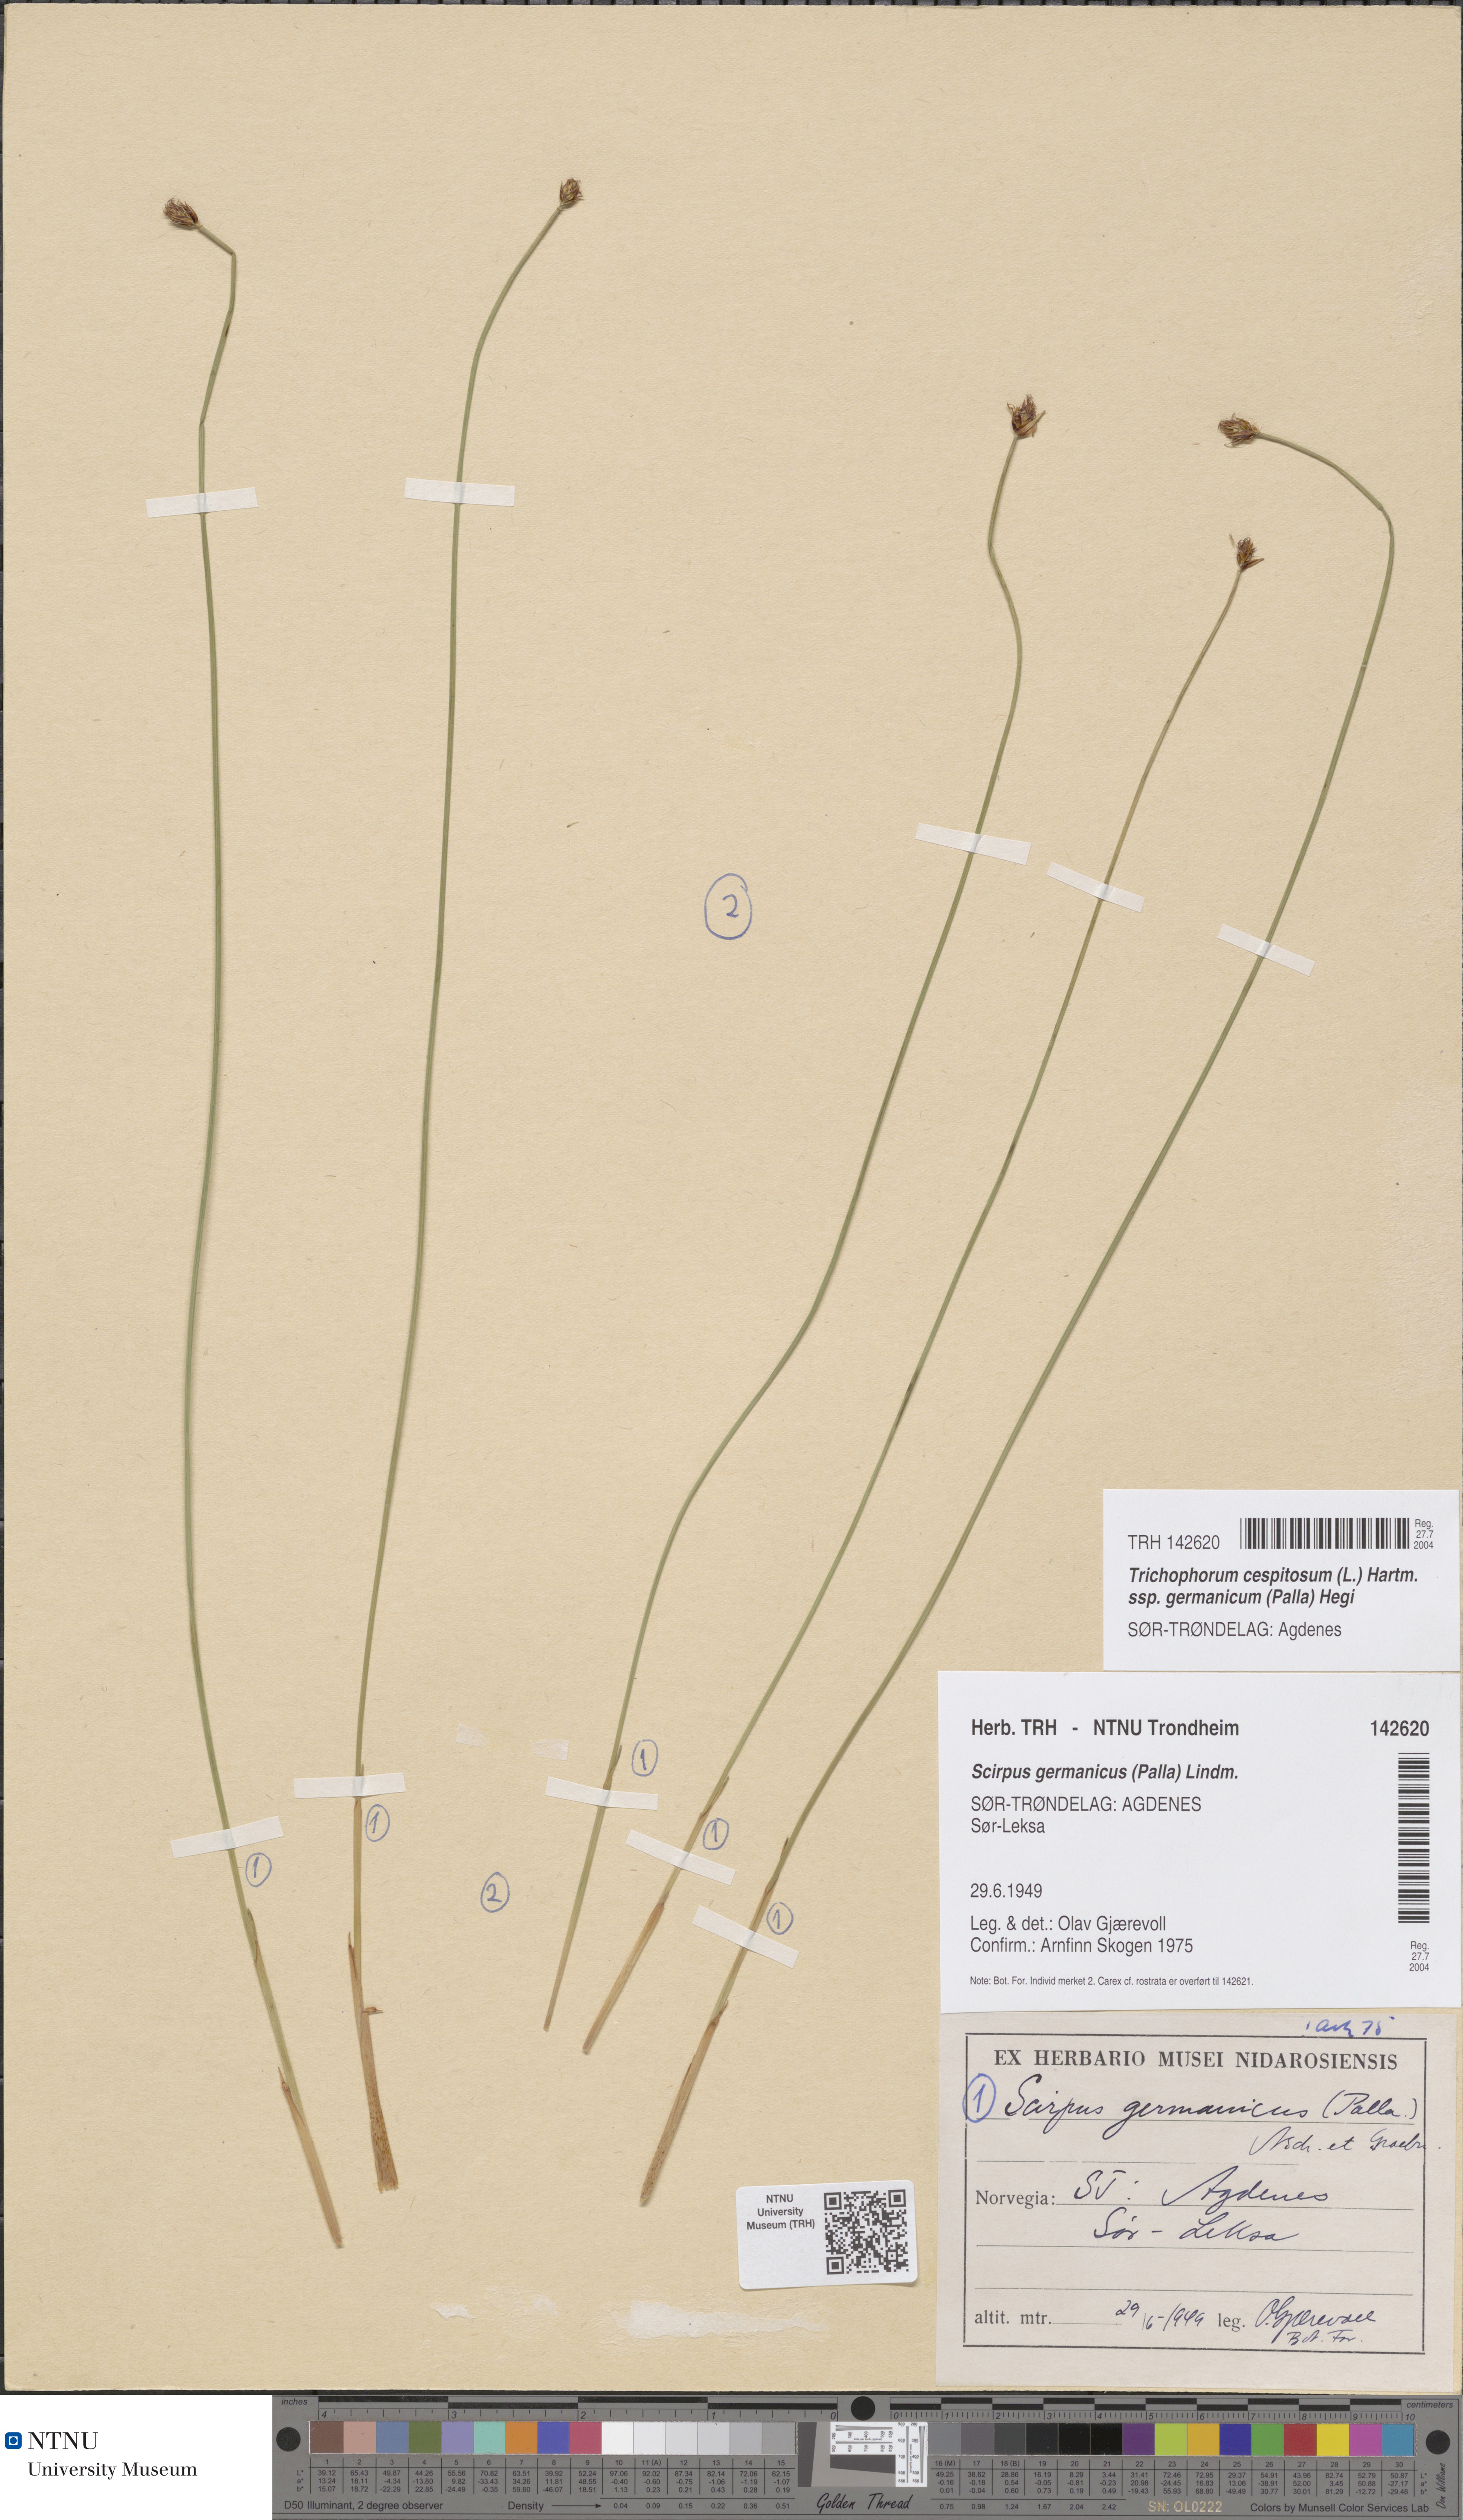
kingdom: Plantae
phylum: Tracheophyta
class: Liliopsida
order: Poales
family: Cyperaceae
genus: Trichophorum
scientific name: Trichophorum cespitosum
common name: Cespitose bulrush
